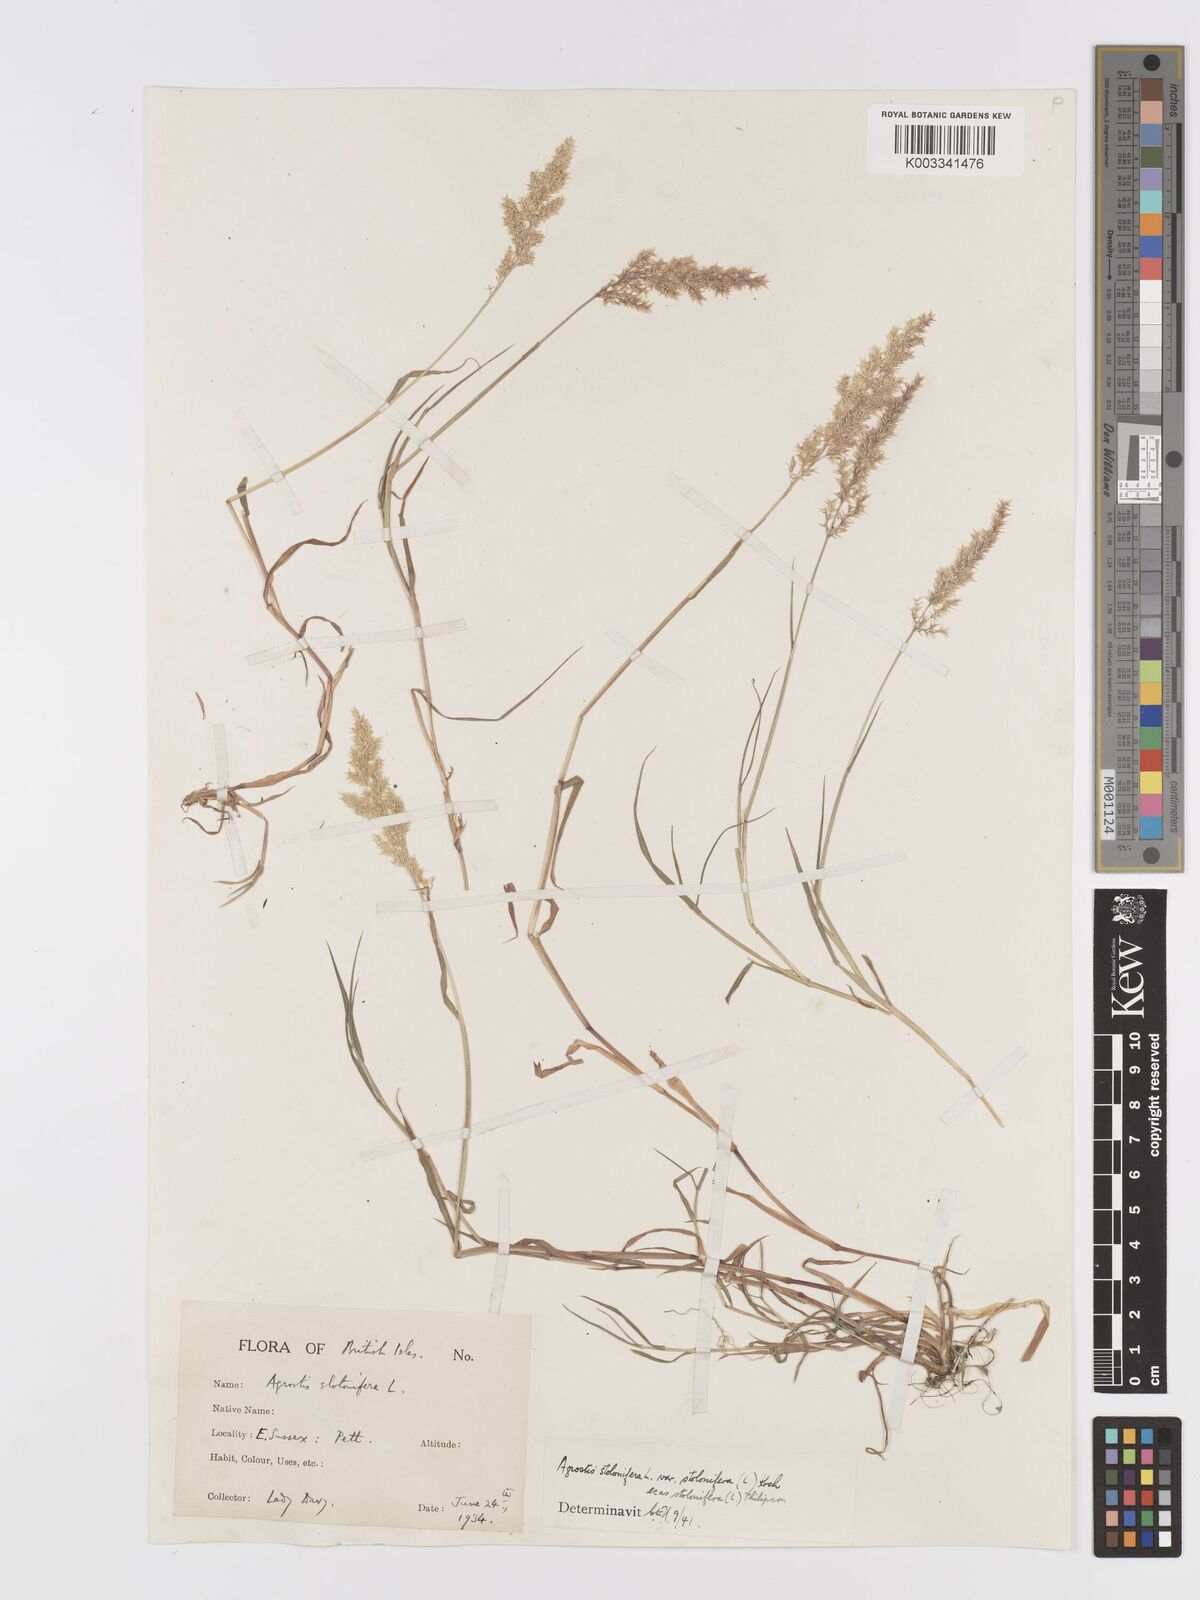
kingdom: Plantae
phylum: Tracheophyta
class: Liliopsida
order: Poales
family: Poaceae
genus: Agrostis
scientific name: Agrostis stolonifera
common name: Creeping bentgrass
